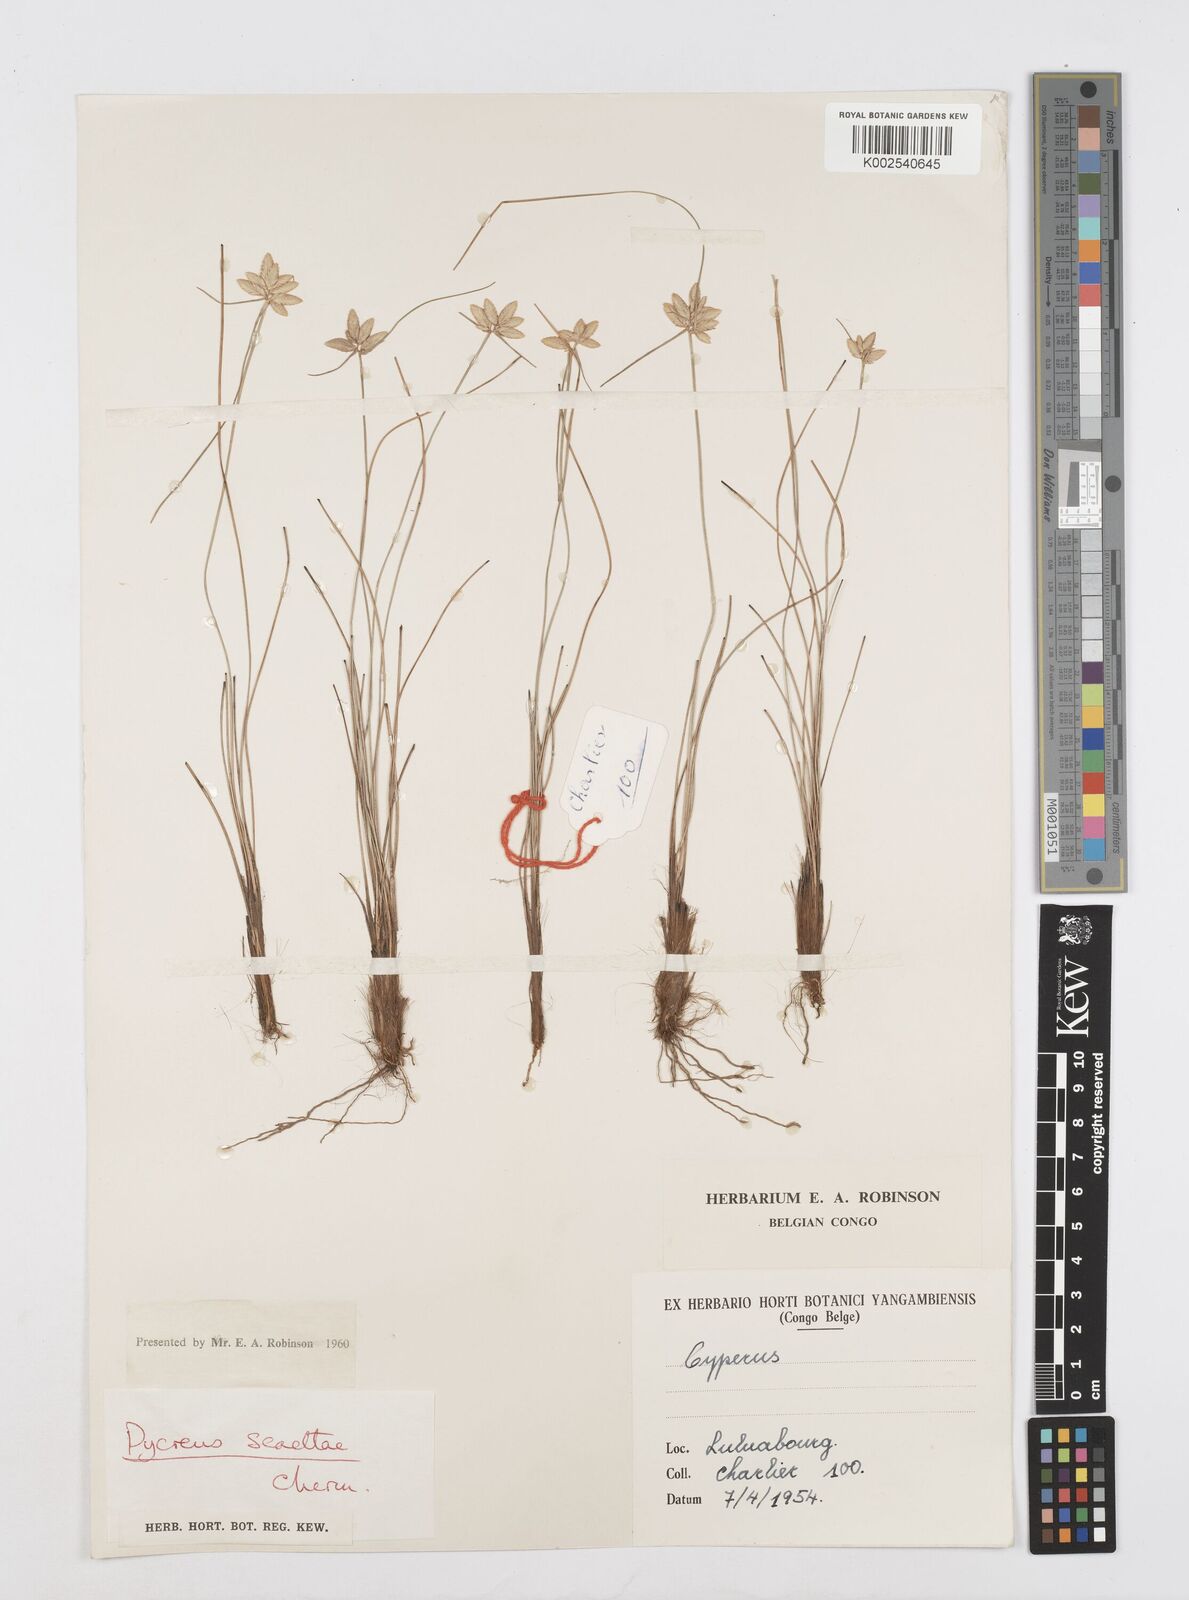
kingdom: Plantae
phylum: Tracheophyta
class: Liliopsida
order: Poales
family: Cyperaceae
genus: Cyperus
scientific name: Cyperus scaettae
